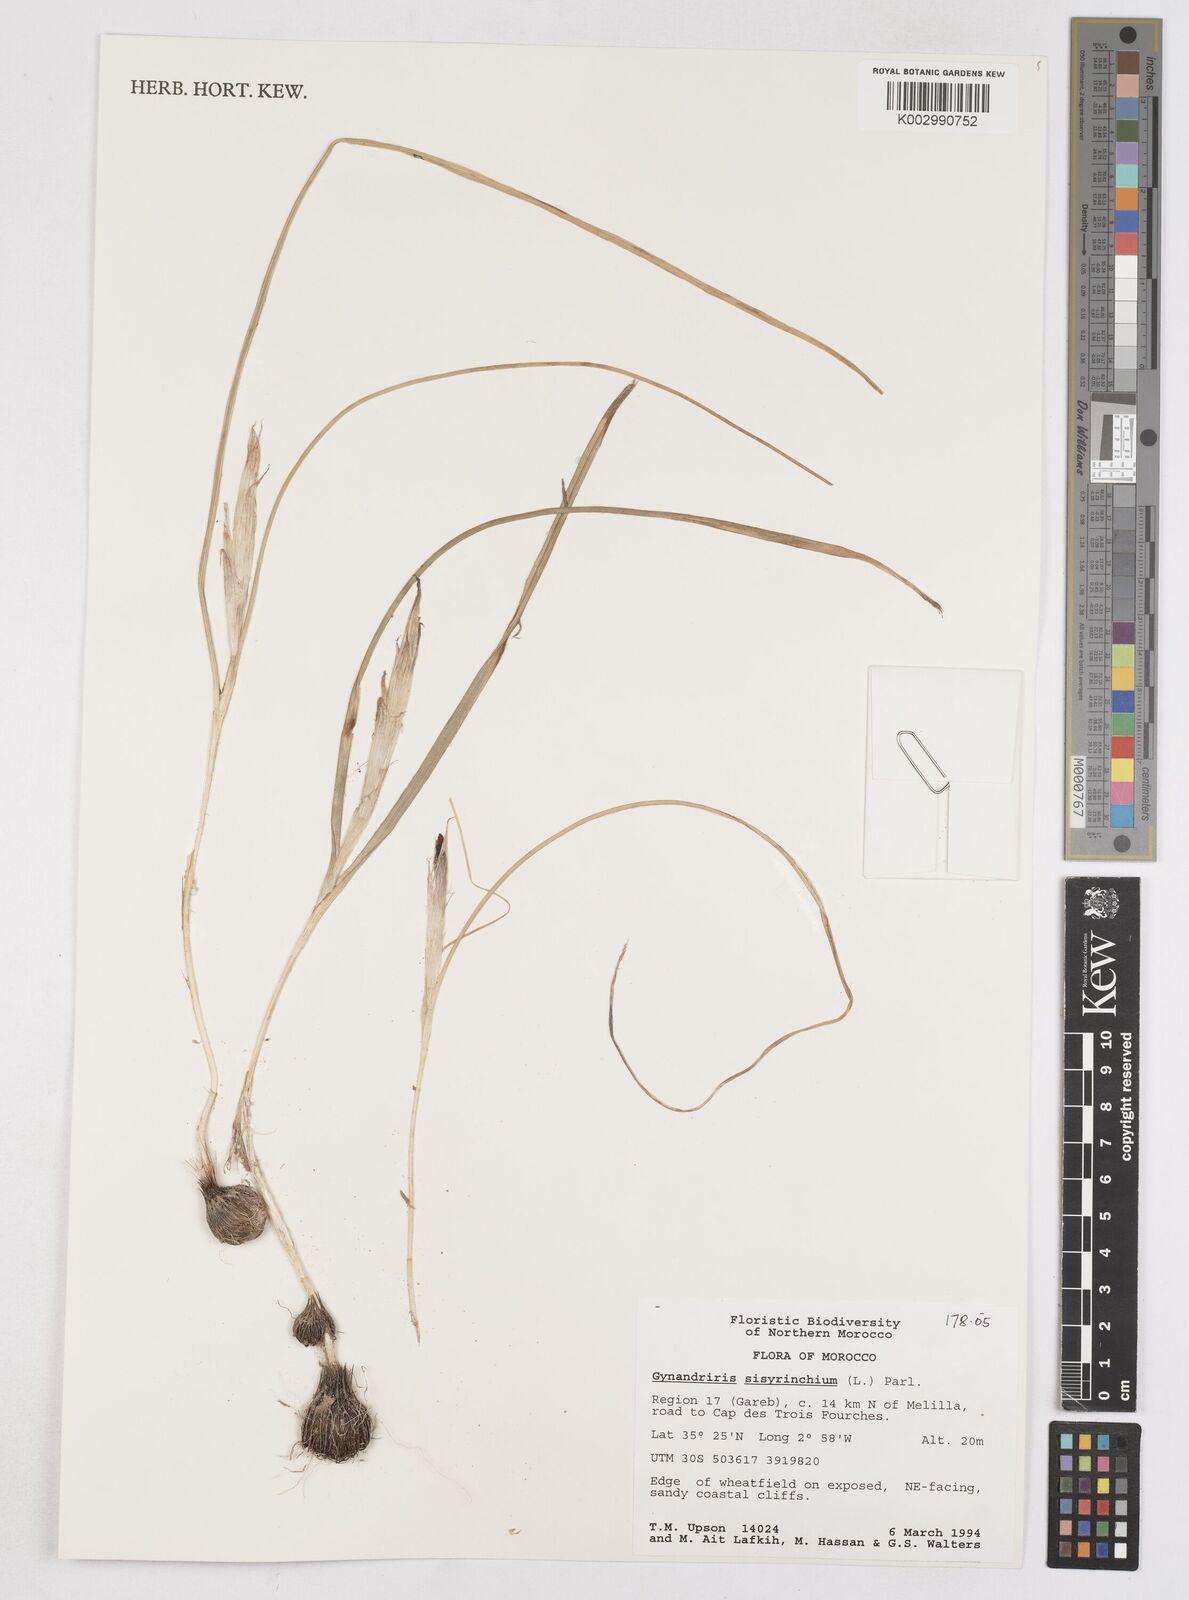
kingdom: Plantae
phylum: Tracheophyta
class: Liliopsida
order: Asparagales
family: Iridaceae
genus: Moraea
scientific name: Moraea sisyrinchium
